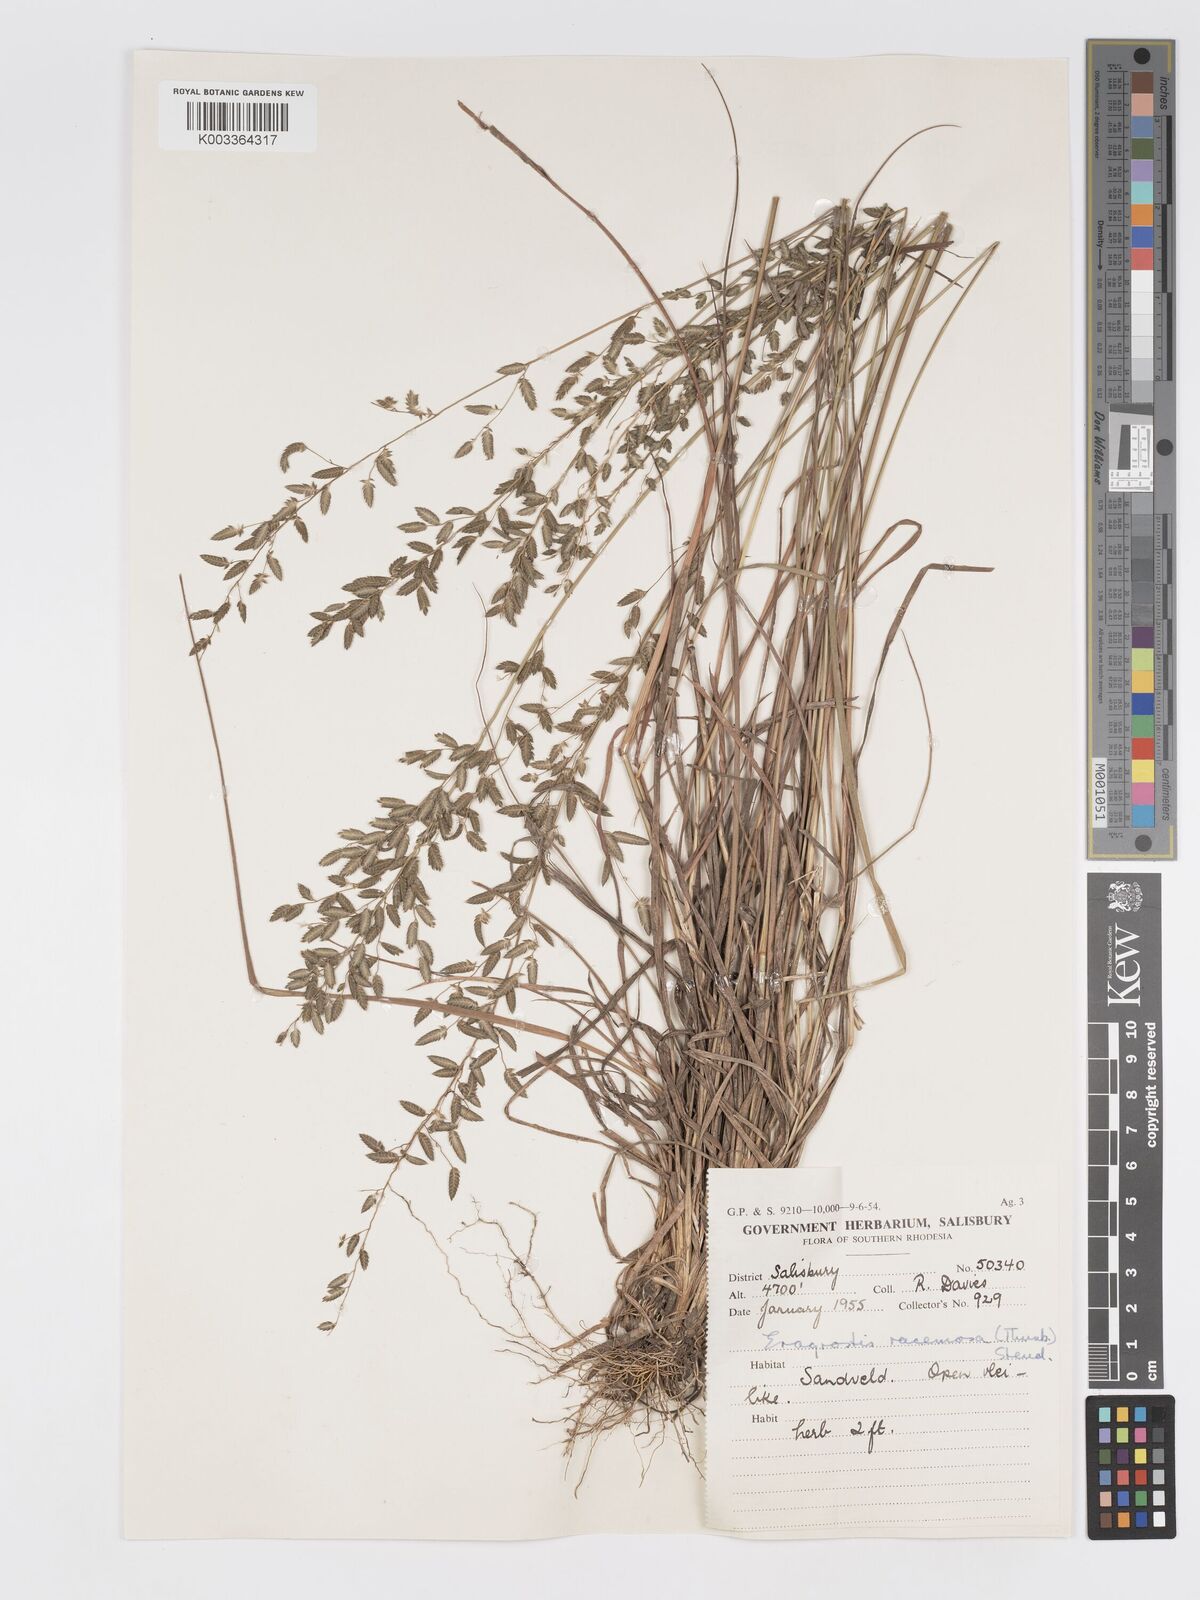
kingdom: Plantae
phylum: Tracheophyta
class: Liliopsida
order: Poales
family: Poaceae
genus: Eragrostis
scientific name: Eragrostis racemosa
